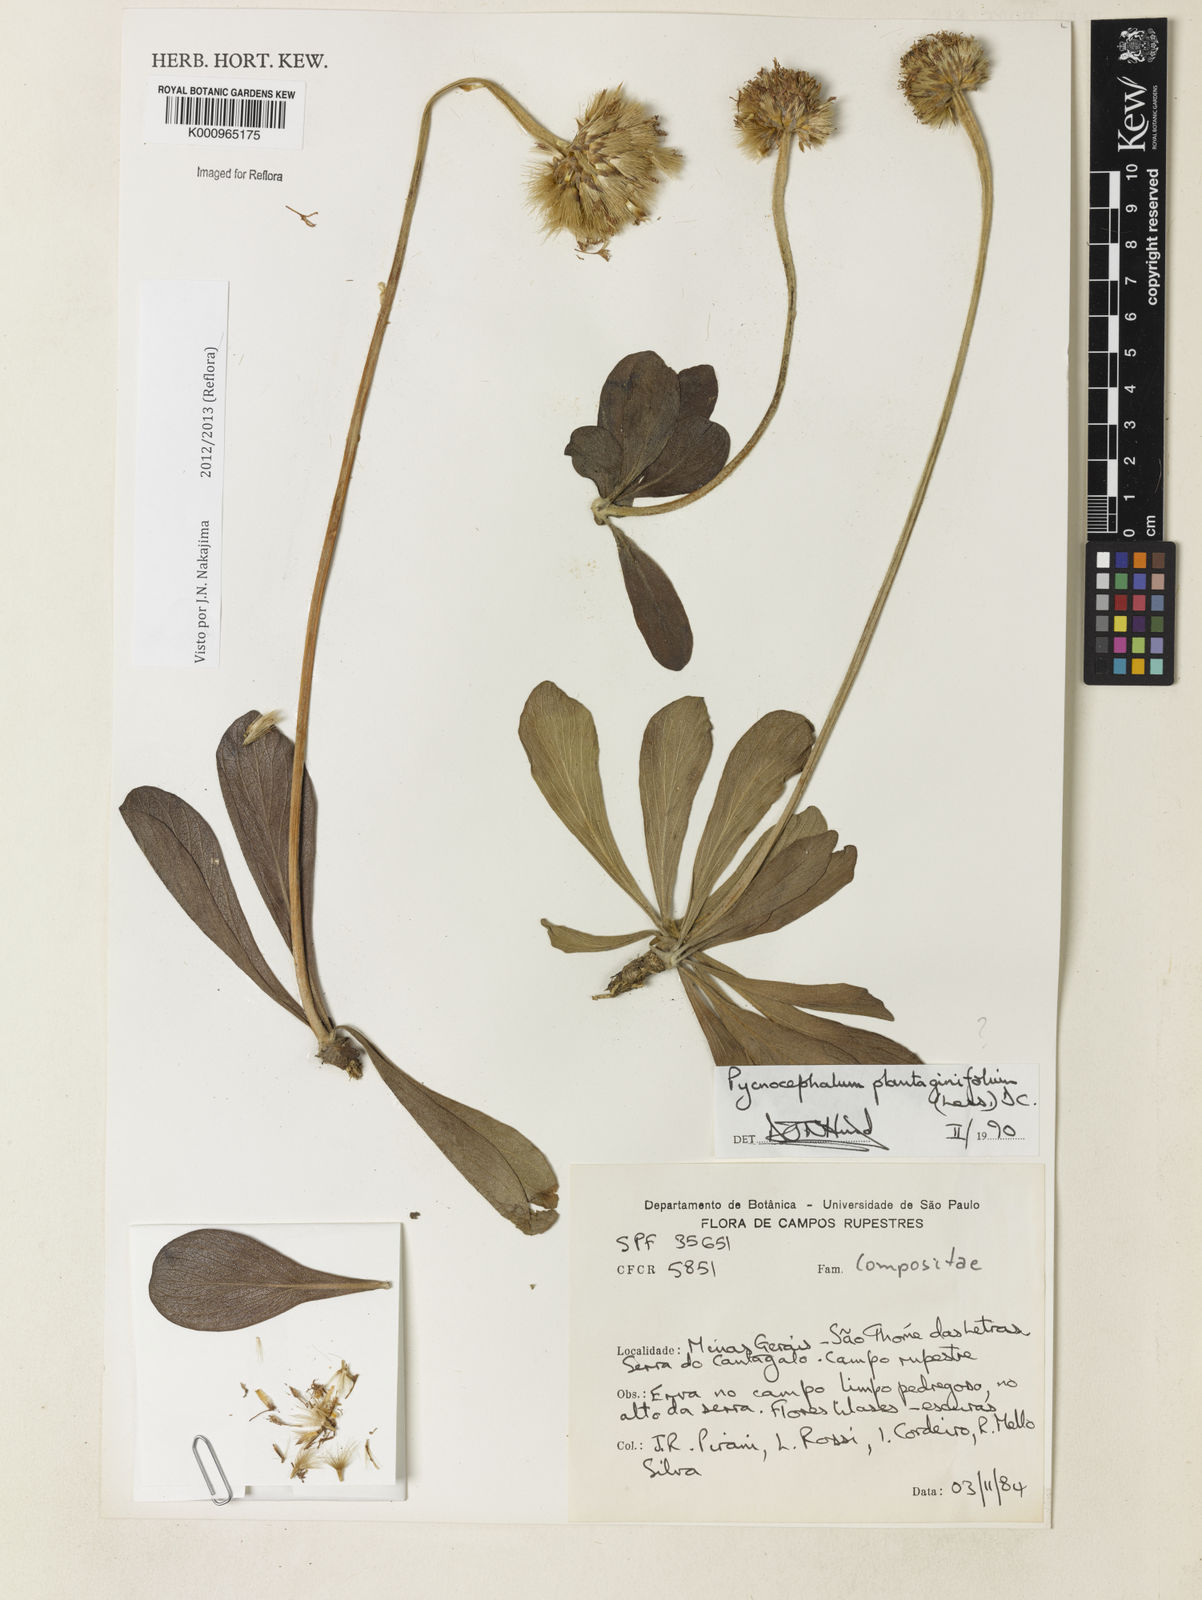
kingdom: Plantae
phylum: Tracheophyta
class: Magnoliopsida
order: Asterales
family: Asteraceae
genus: Chresta
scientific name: Chresta plantaginifolia
